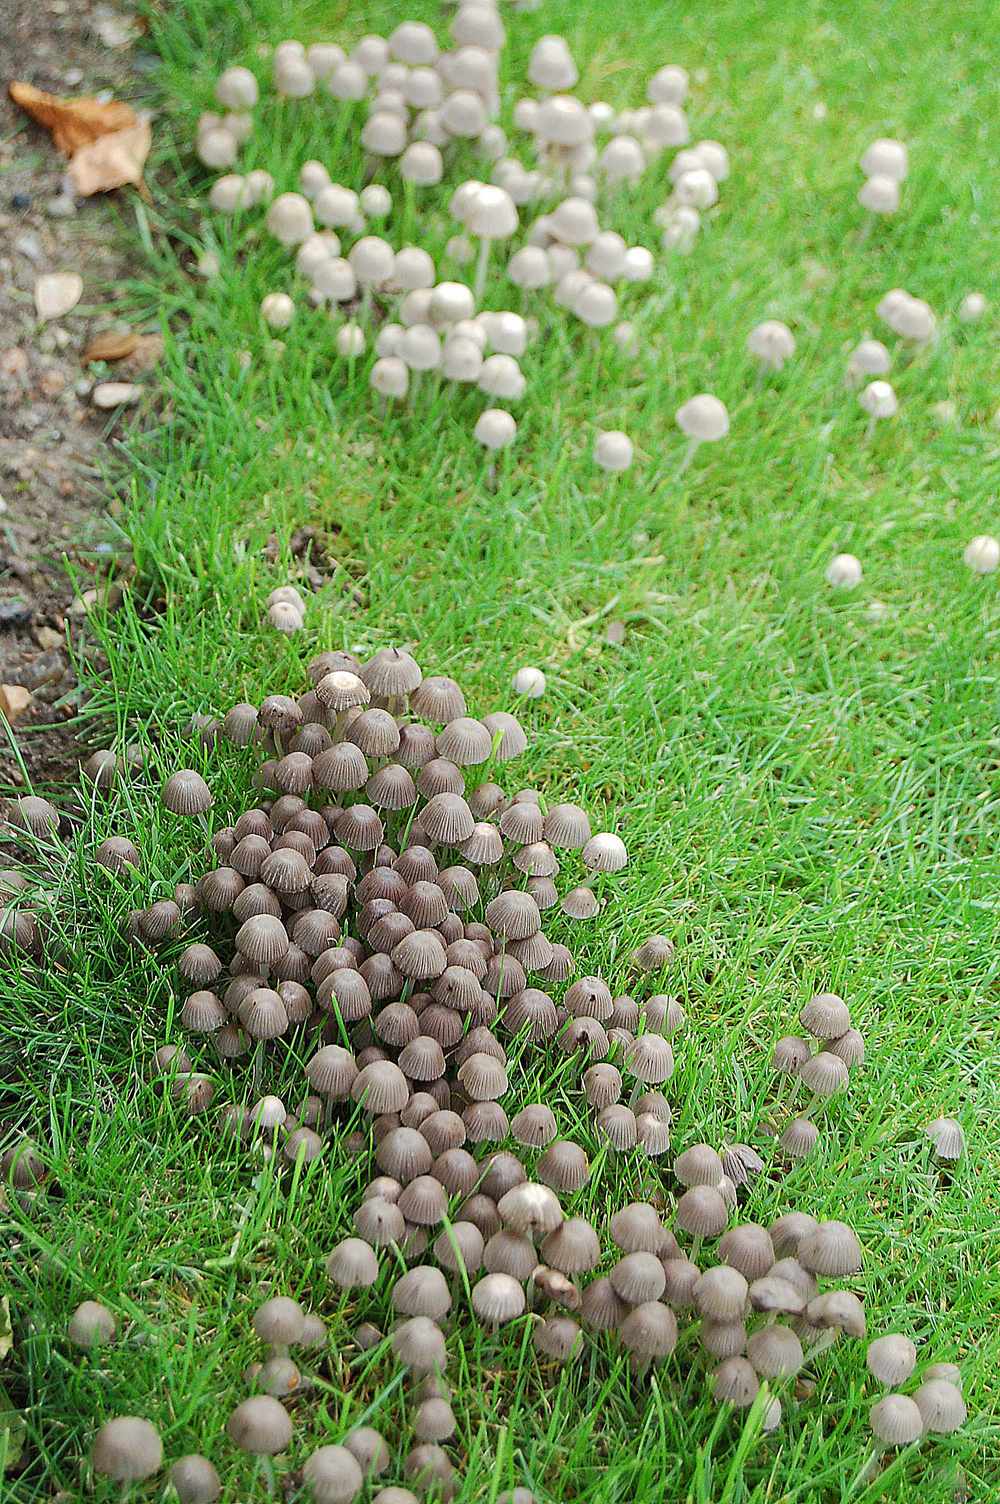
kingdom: Fungi
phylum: Basidiomycota
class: Agaricomycetes
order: Agaricales
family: Psathyrellaceae
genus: Coprinellus
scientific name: Coprinellus disseminatus
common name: bredsået blækhat
